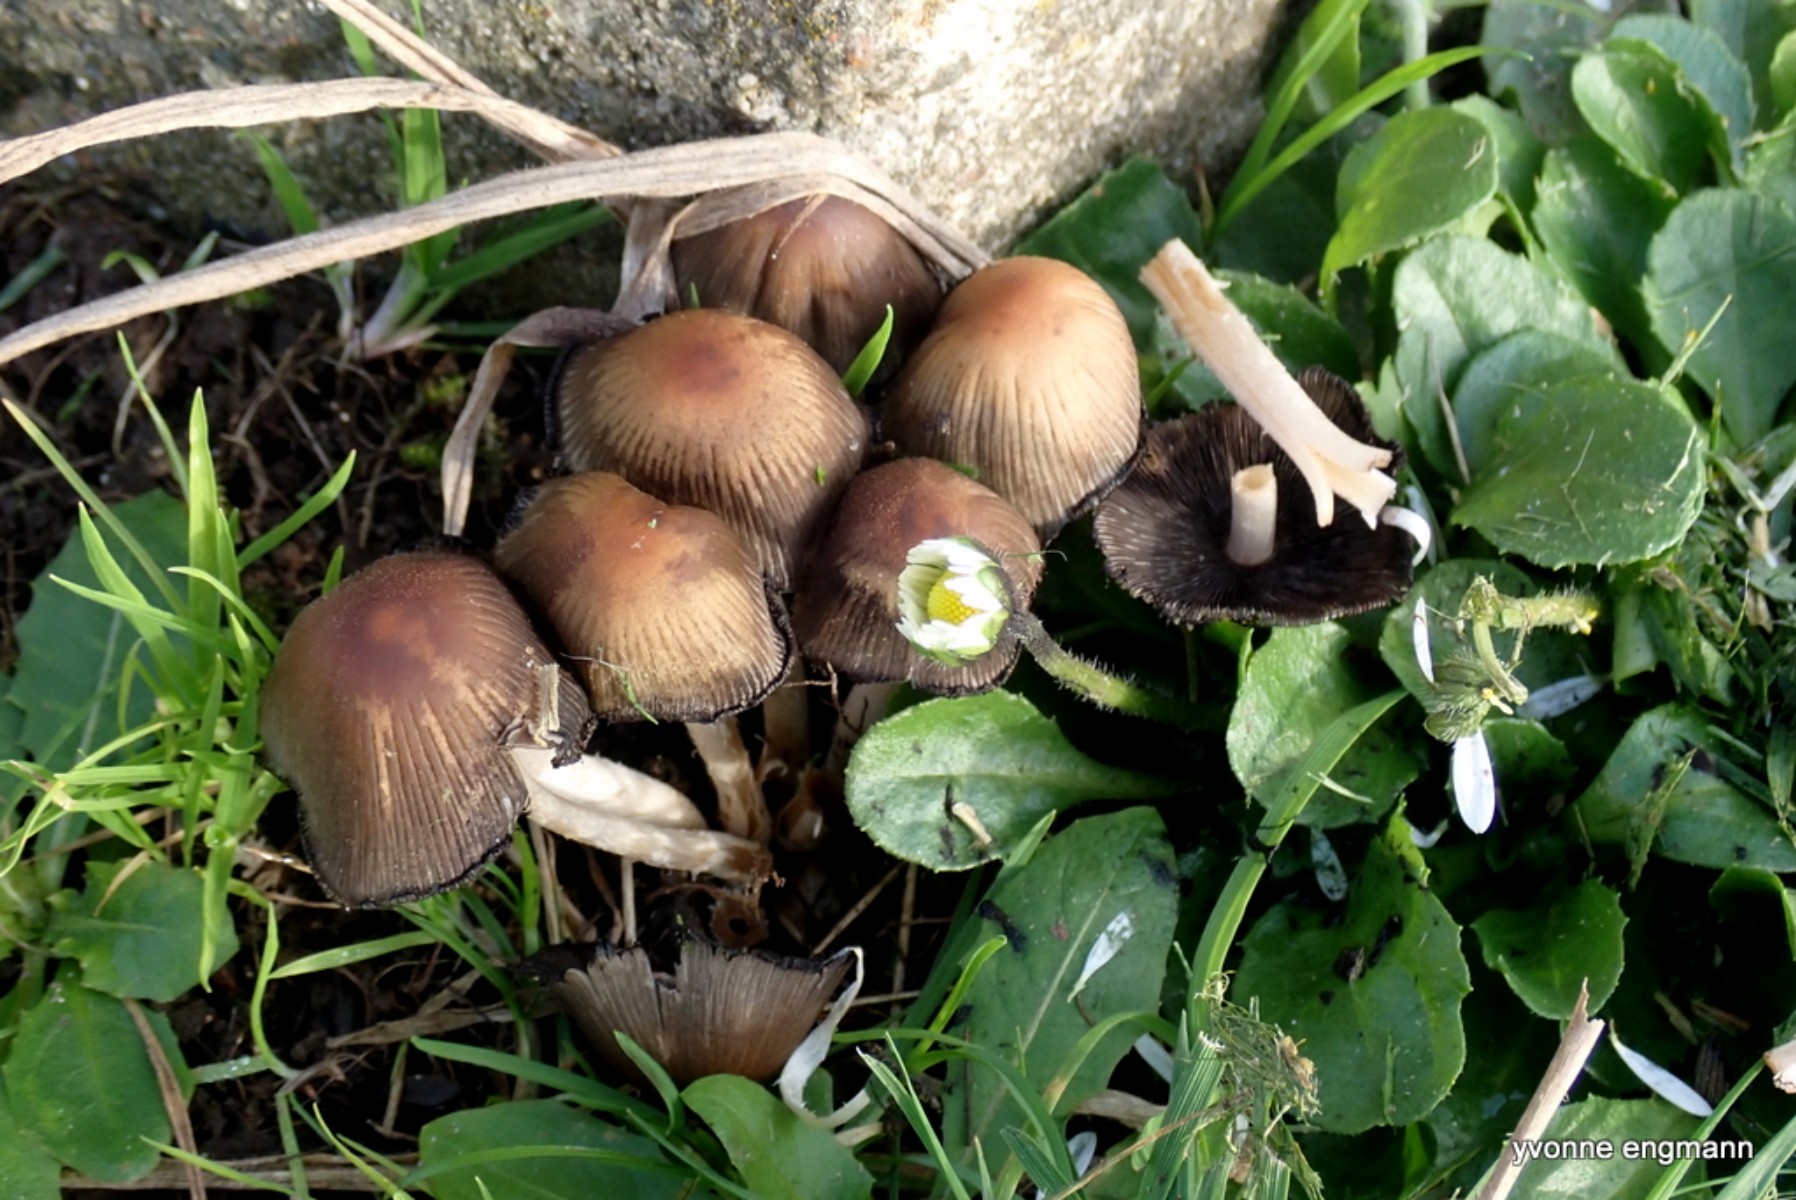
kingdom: Fungi
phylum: Basidiomycota
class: Agaricomycetes
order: Agaricales
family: Psathyrellaceae
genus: Coprinellus
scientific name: Coprinellus micaceus
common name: glimmer-blækhat
